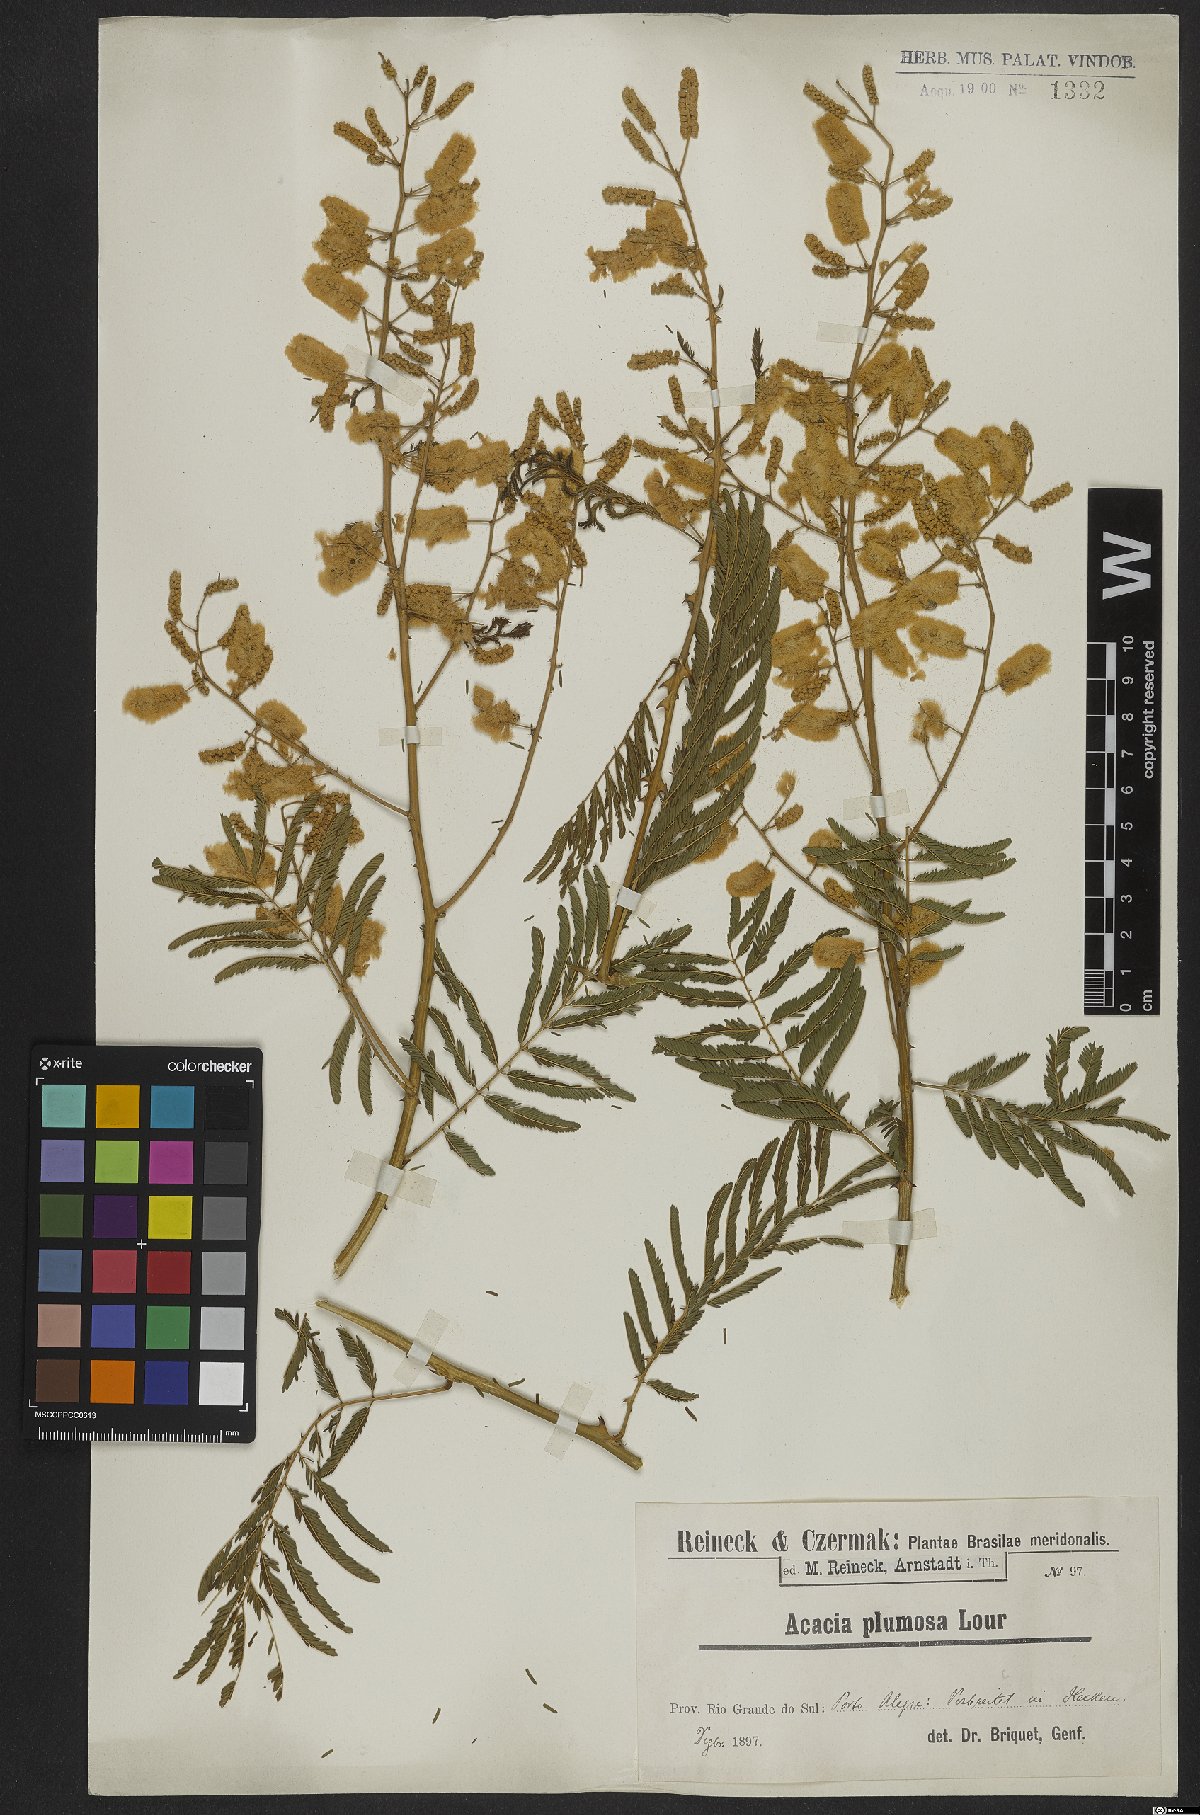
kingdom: Plantae
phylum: Tracheophyta
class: Magnoliopsida
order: Fabales
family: Fabaceae
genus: Senegalia
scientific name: Senegalia lowei
